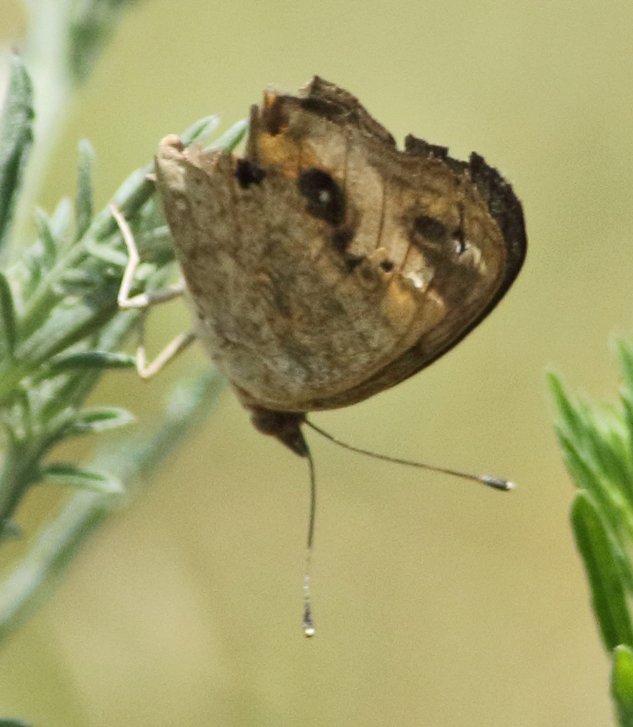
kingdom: Animalia
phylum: Arthropoda
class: Insecta
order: Lepidoptera
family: Nymphalidae
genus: Junonia
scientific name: Junonia coenia
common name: Common Buckeye
